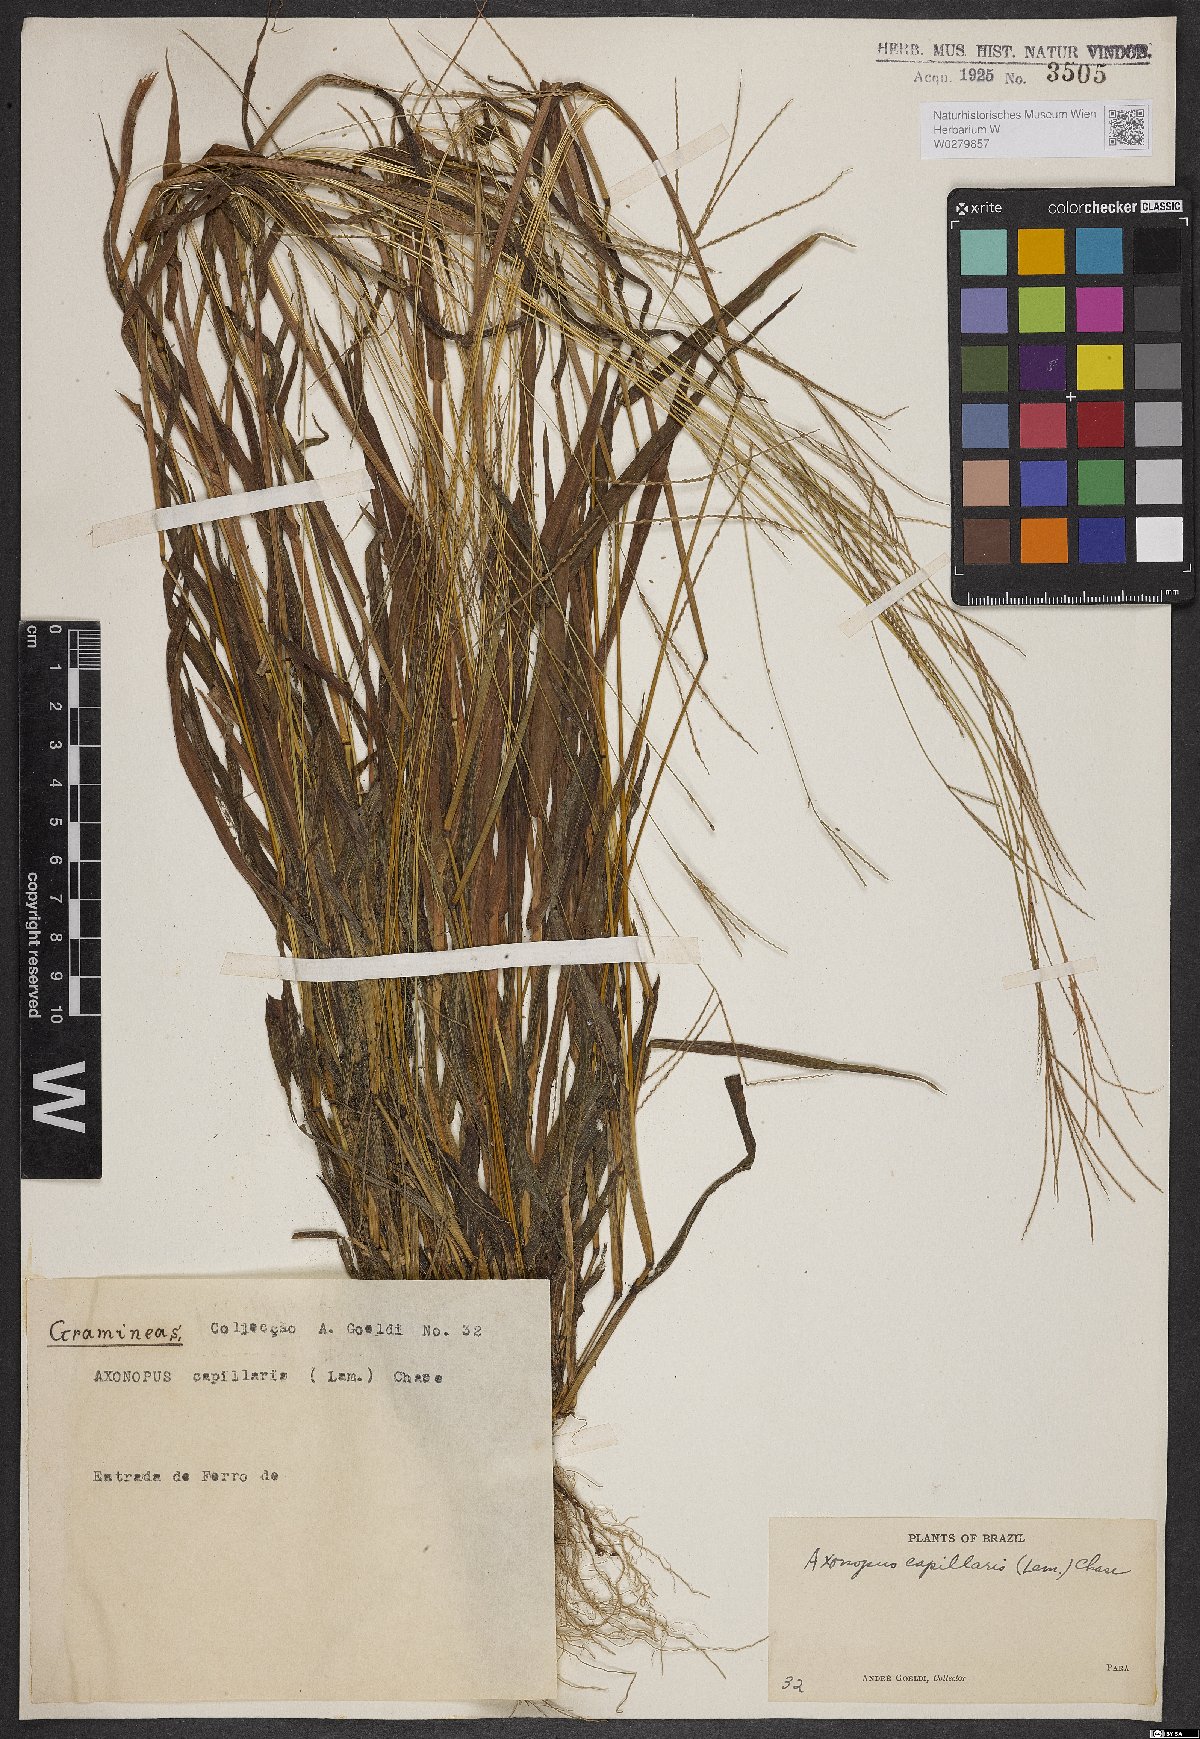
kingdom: Plantae
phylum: Tracheophyta
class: Liliopsida
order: Poales
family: Poaceae
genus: Axonopus
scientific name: Axonopus capillaris
